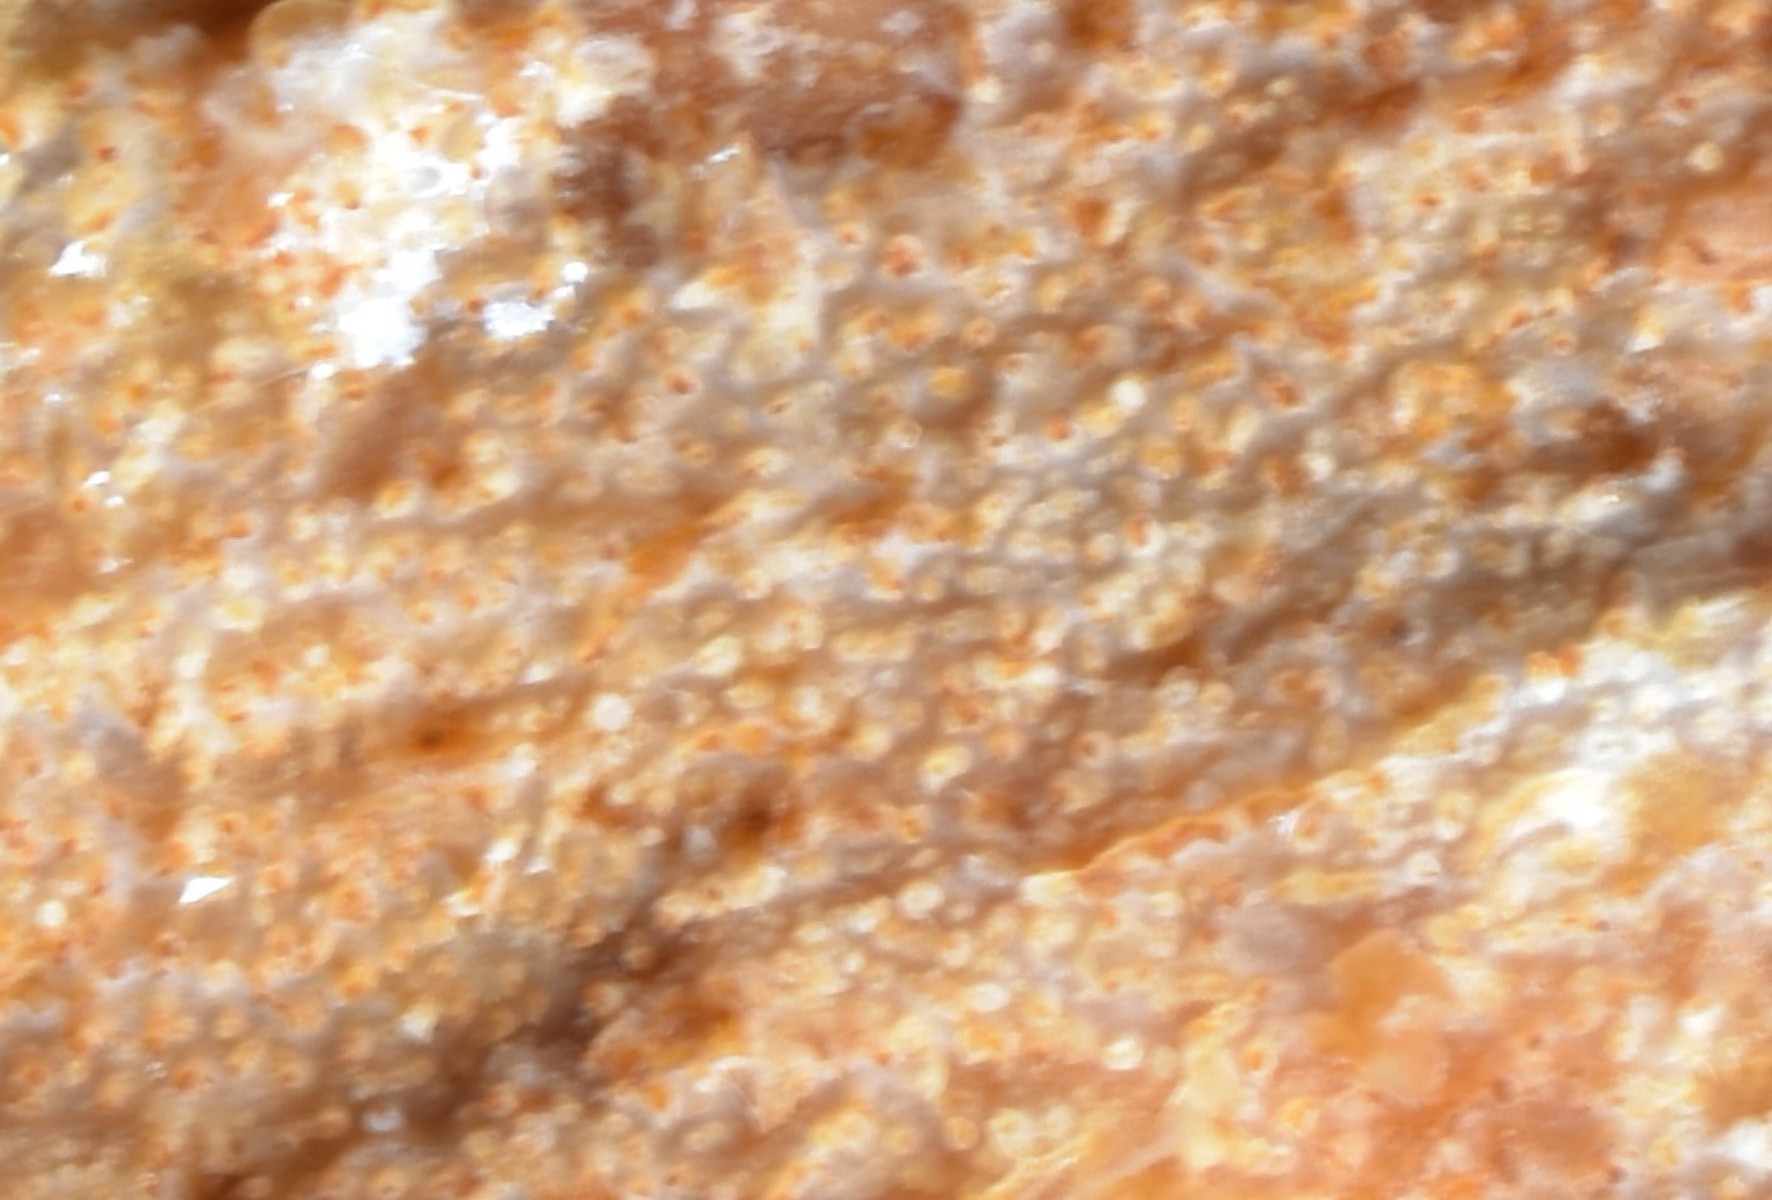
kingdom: Fungi
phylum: Basidiomycota
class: Agaricomycetes
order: Hymenochaetales
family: Rickenellaceae
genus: Resinicium
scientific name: Resinicium bicolor
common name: almindelig vokstand
